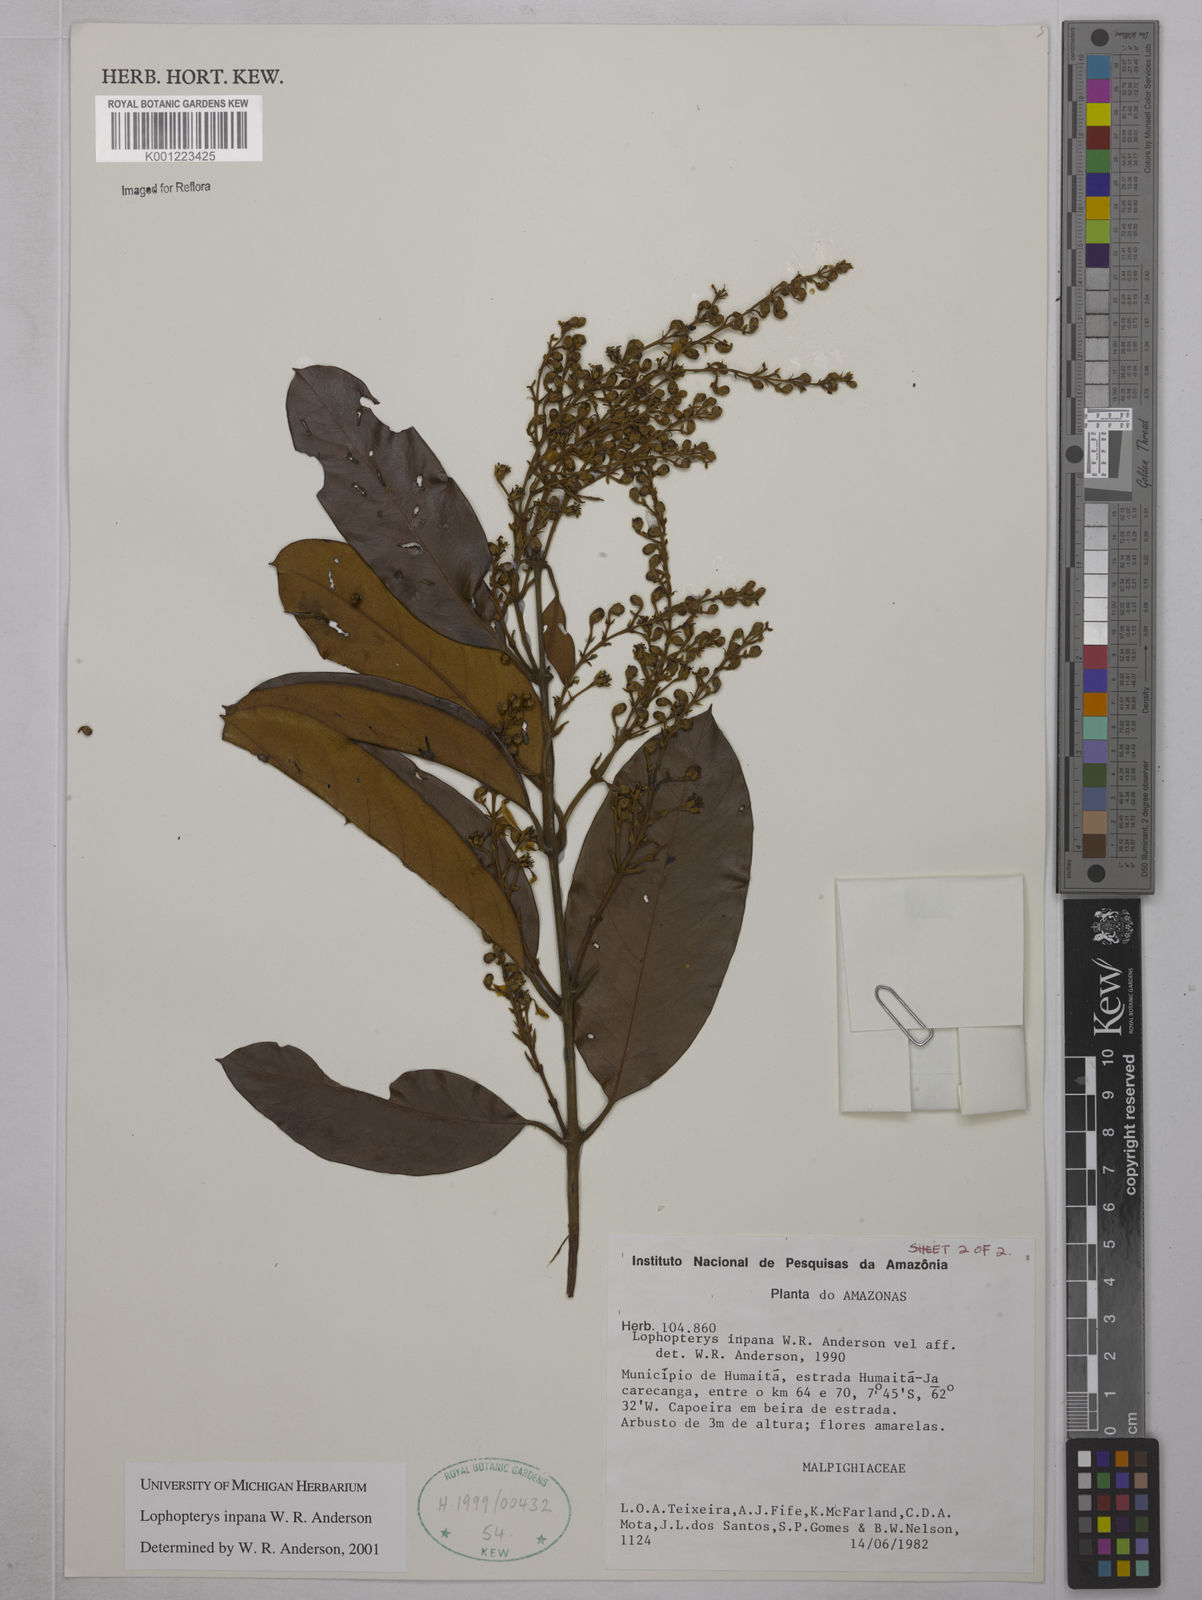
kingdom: Plantae
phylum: Tracheophyta
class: Magnoliopsida
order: Malpighiales
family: Malpighiaceae
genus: Lophopterys
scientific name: Lophopterys inpana
